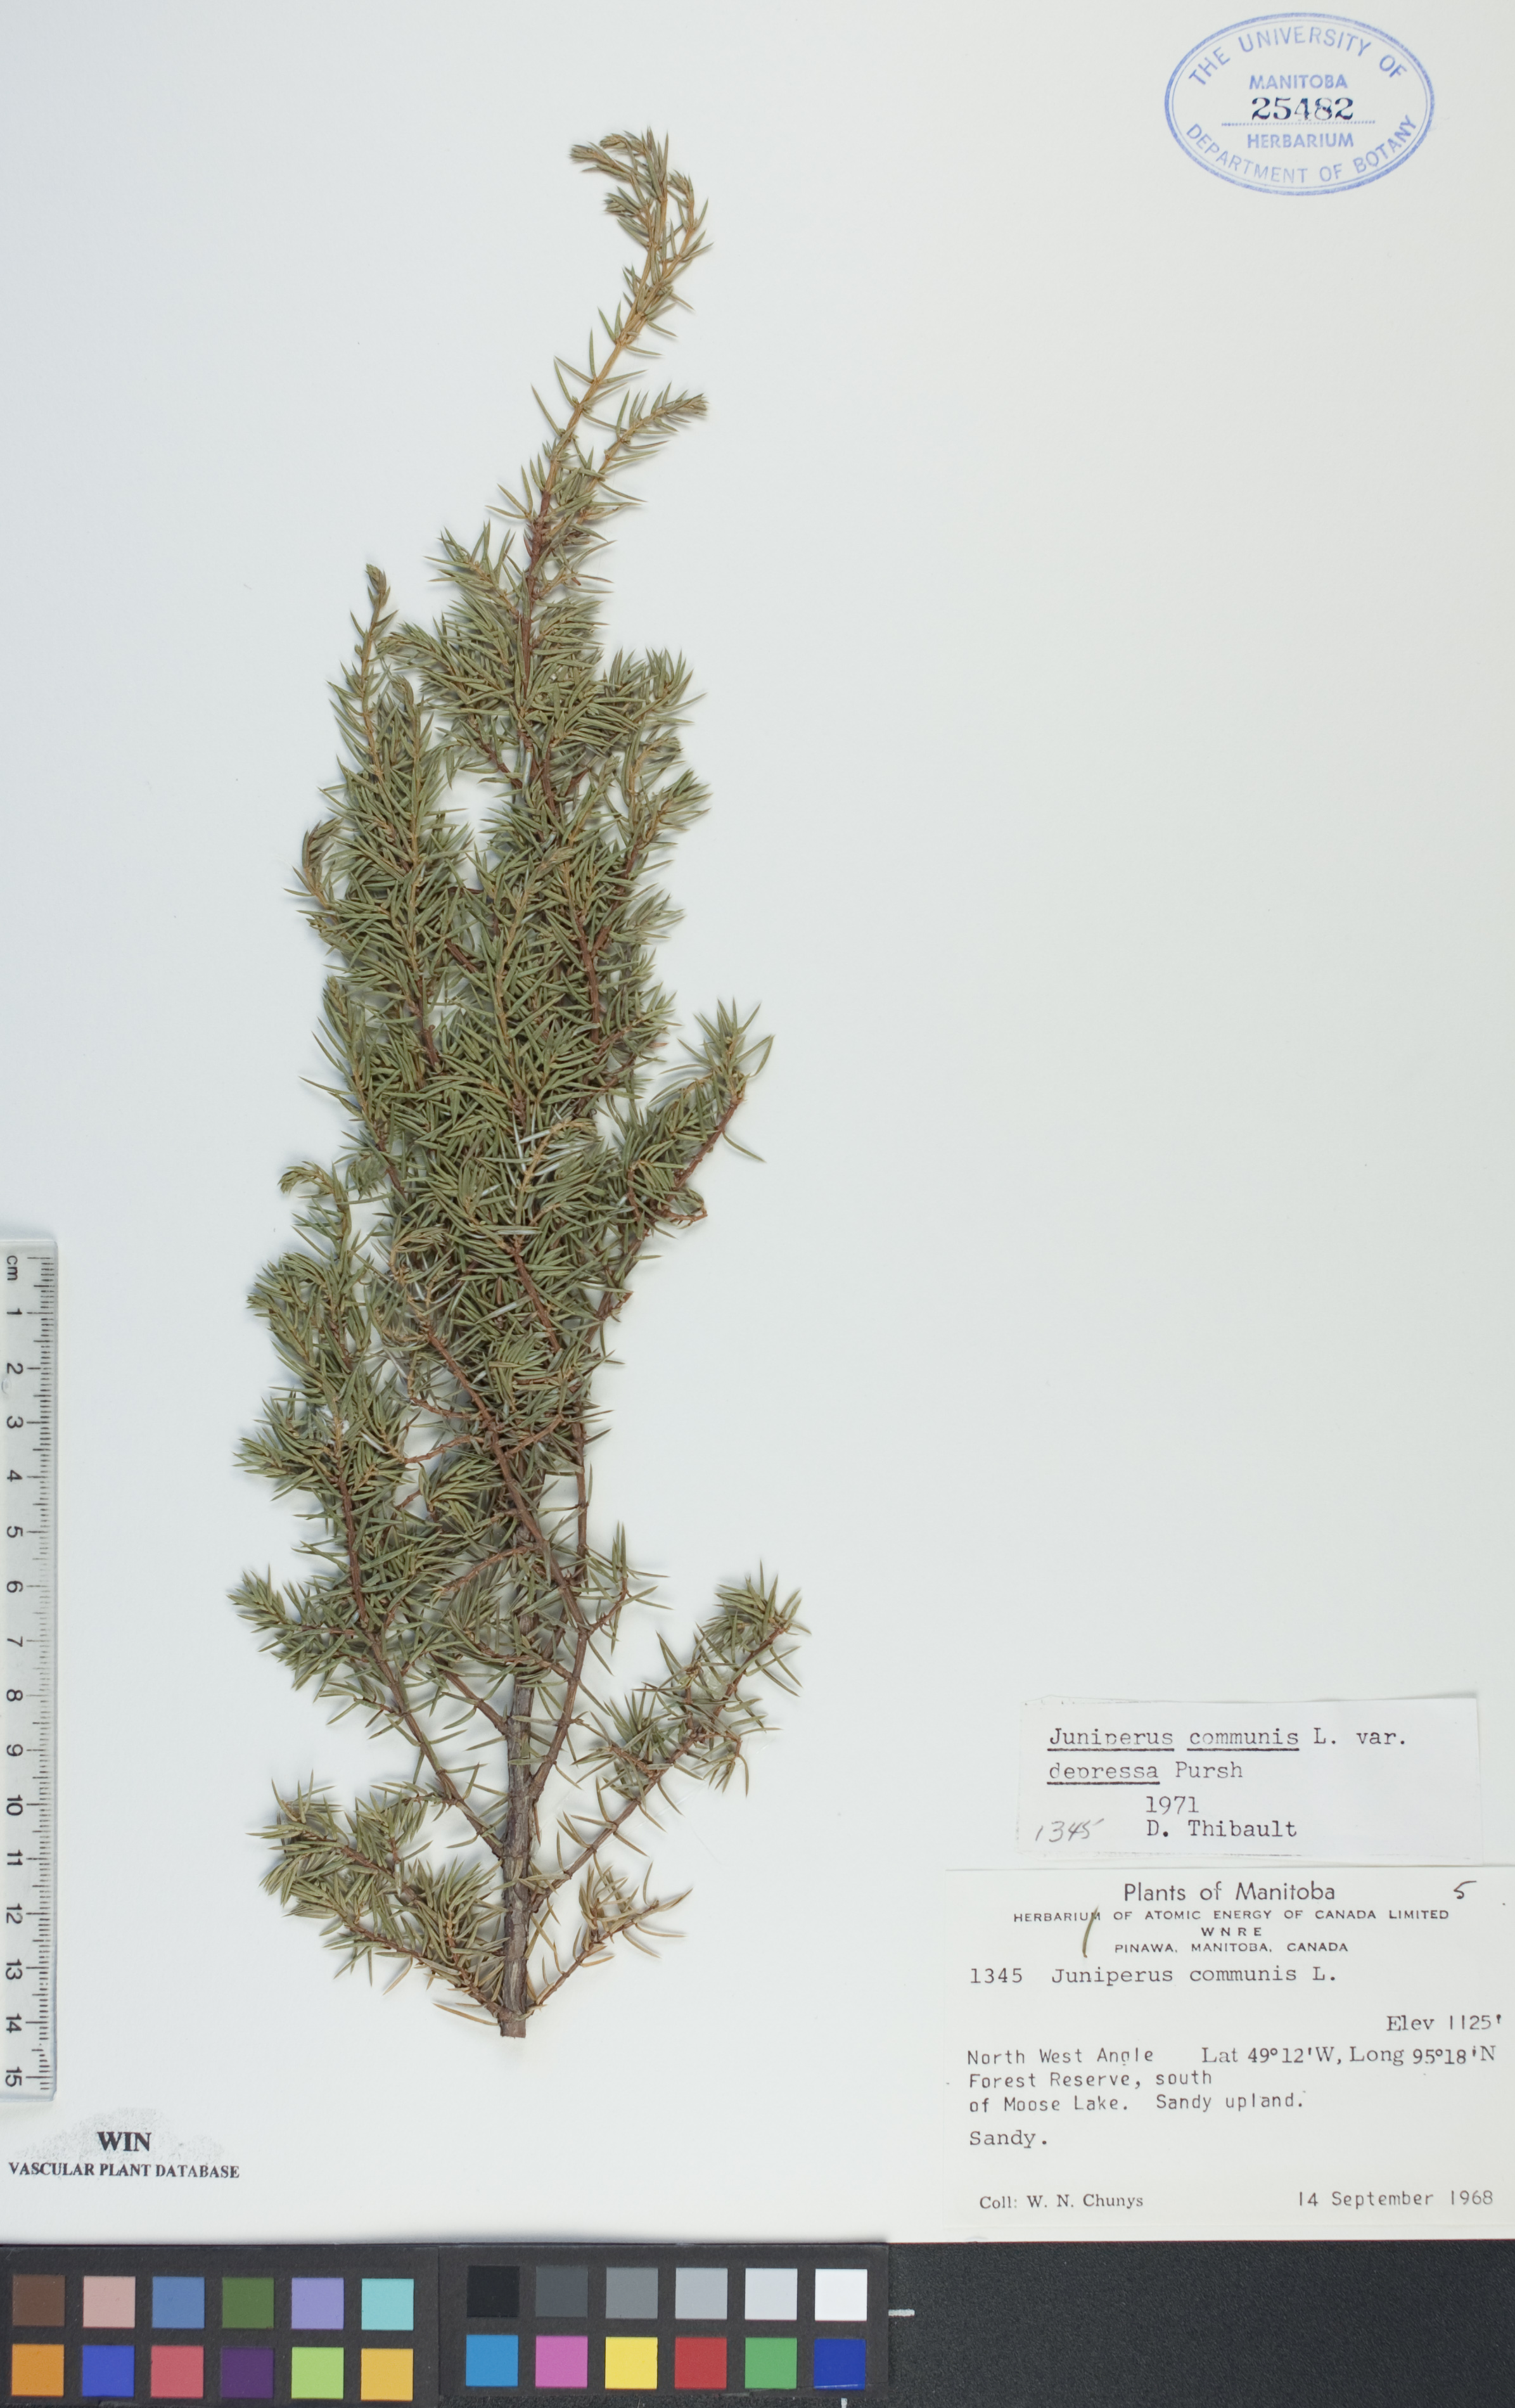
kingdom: Plantae
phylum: Tracheophyta
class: Pinopsida
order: Pinales
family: Cupressaceae
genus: Juniperus
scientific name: Juniperus communis
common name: Common juniper
